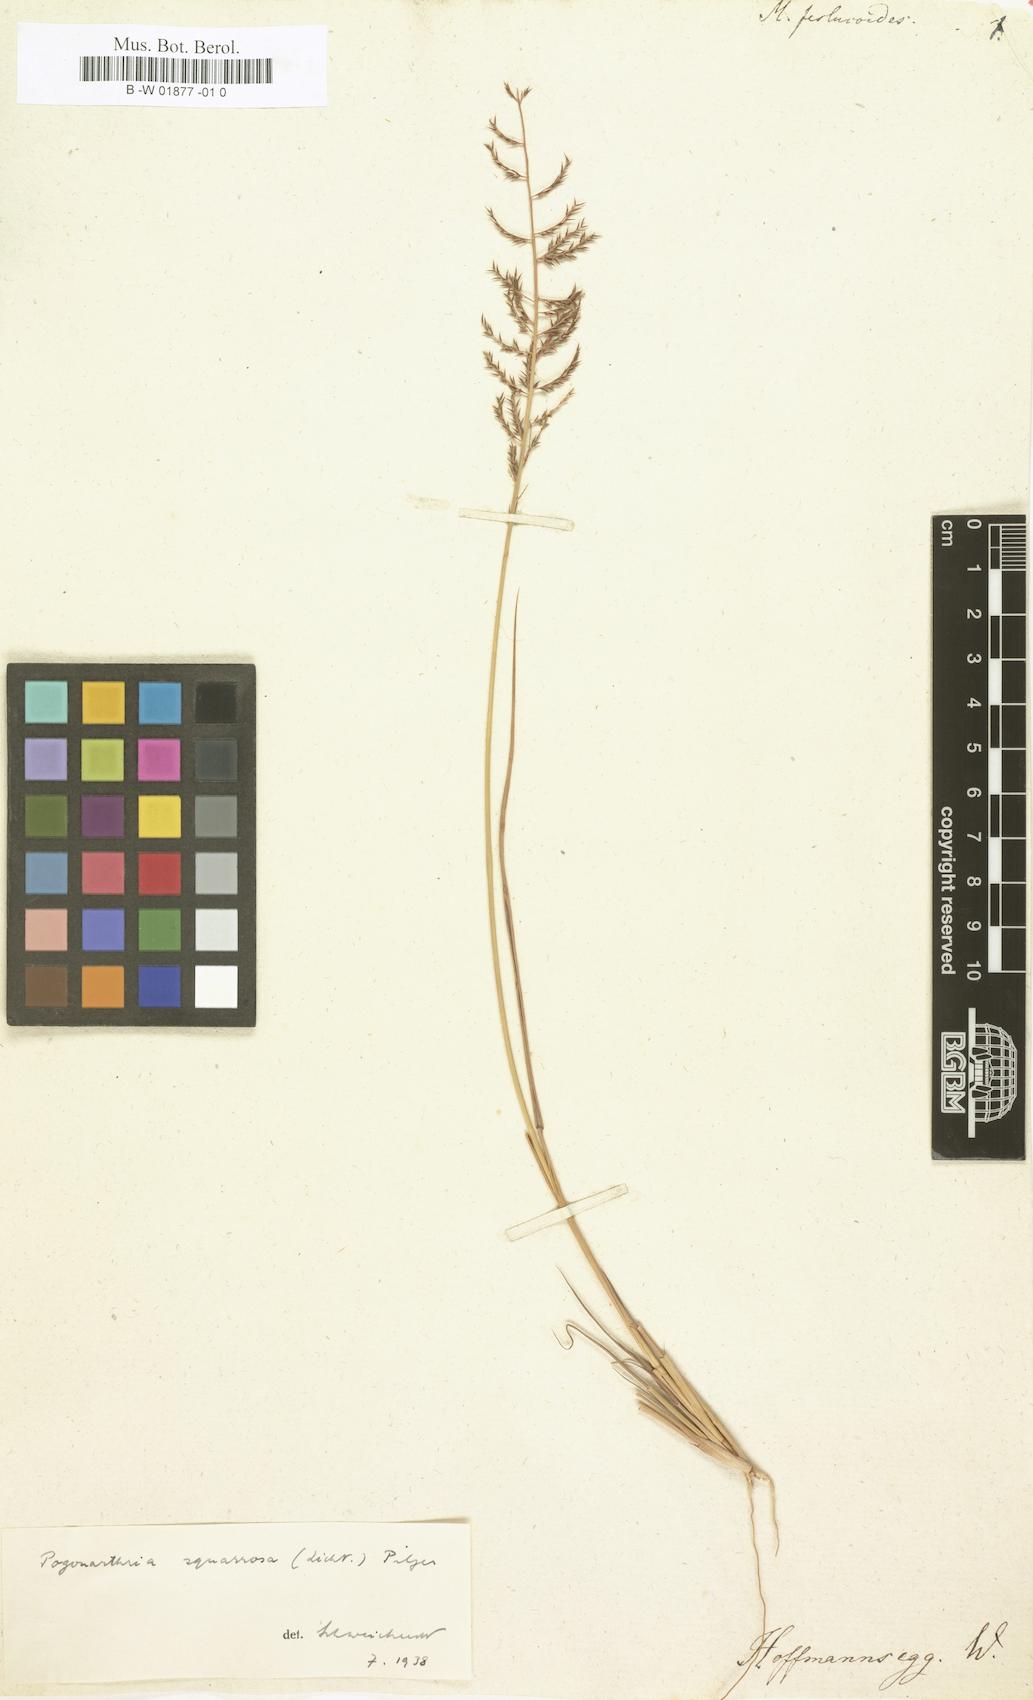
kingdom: Plantae
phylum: Tracheophyta
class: Liliopsida
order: Poales
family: Poaceae
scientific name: Poaceae
